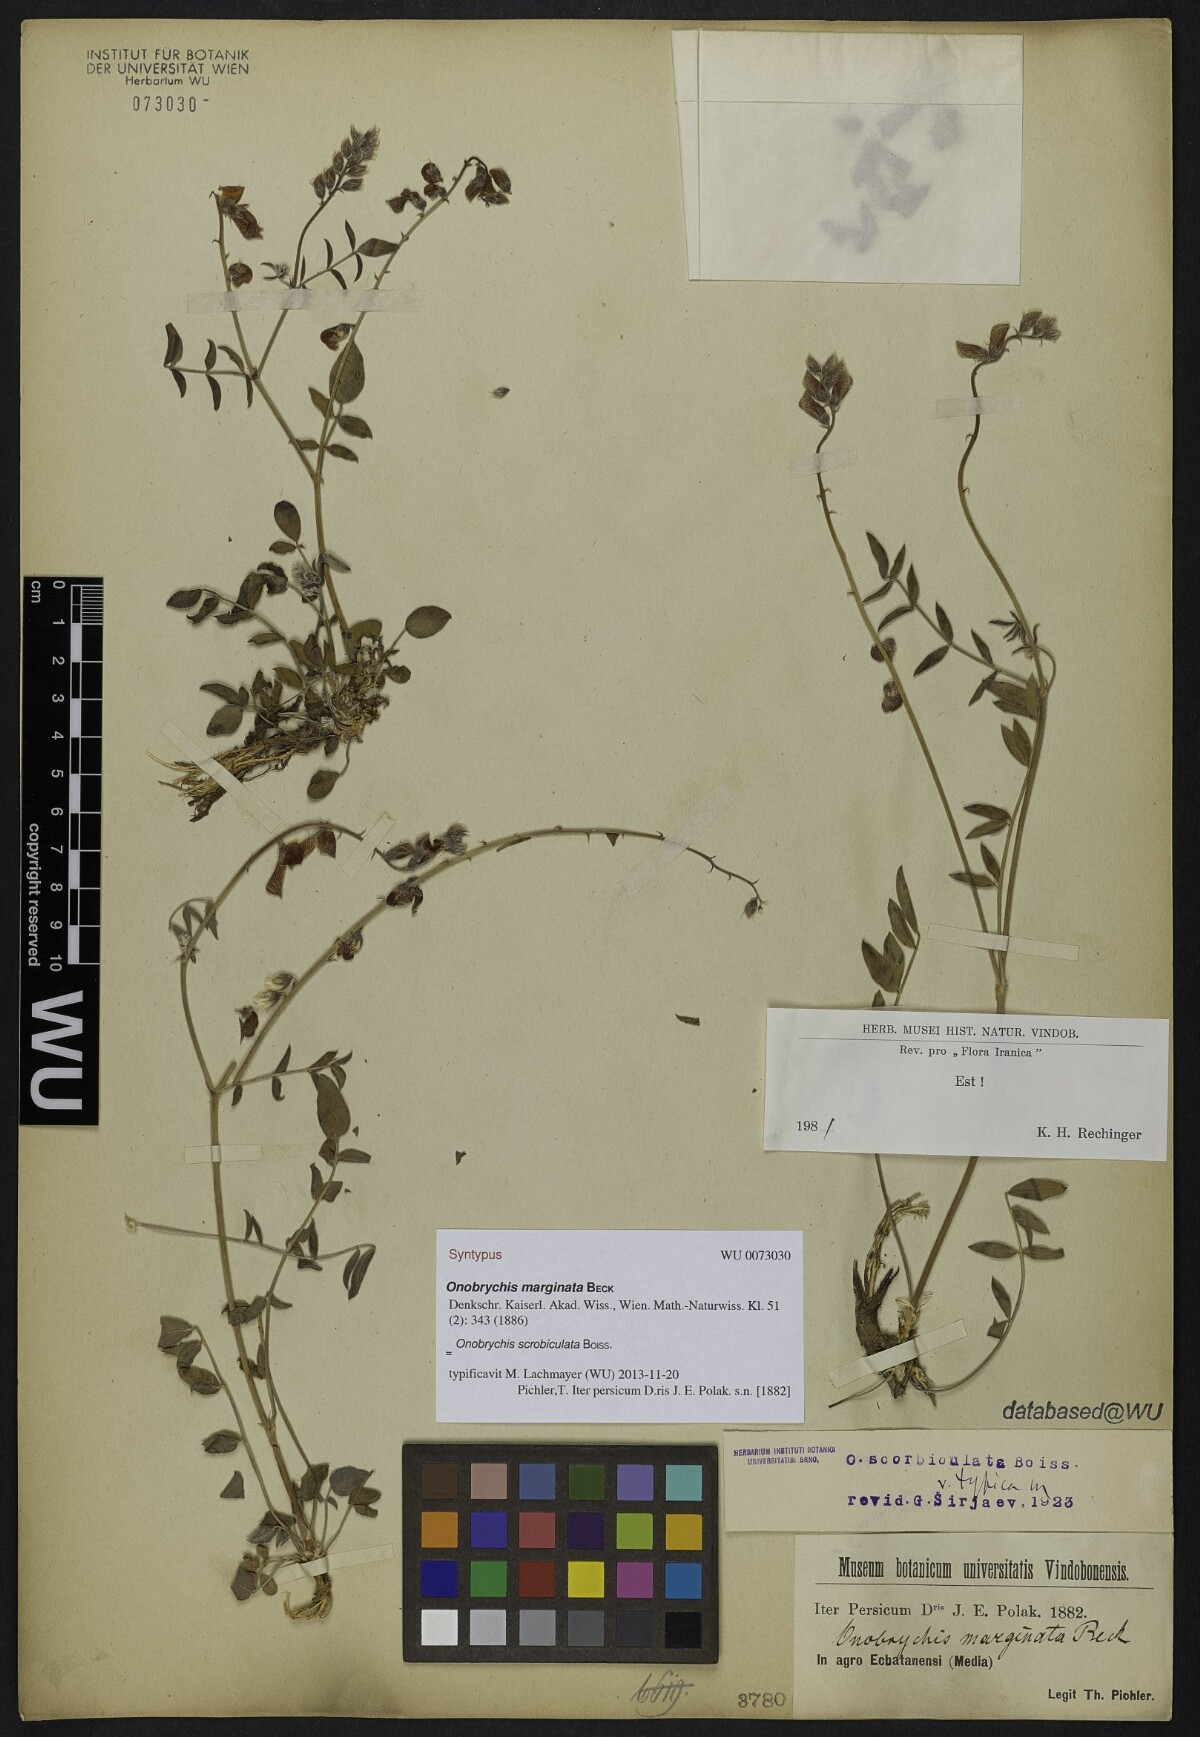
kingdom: Plantae
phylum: Tracheophyta
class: Magnoliopsida
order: Fabales
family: Fabaceae
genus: Onobrychis
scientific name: Onobrychis scrobiculata
